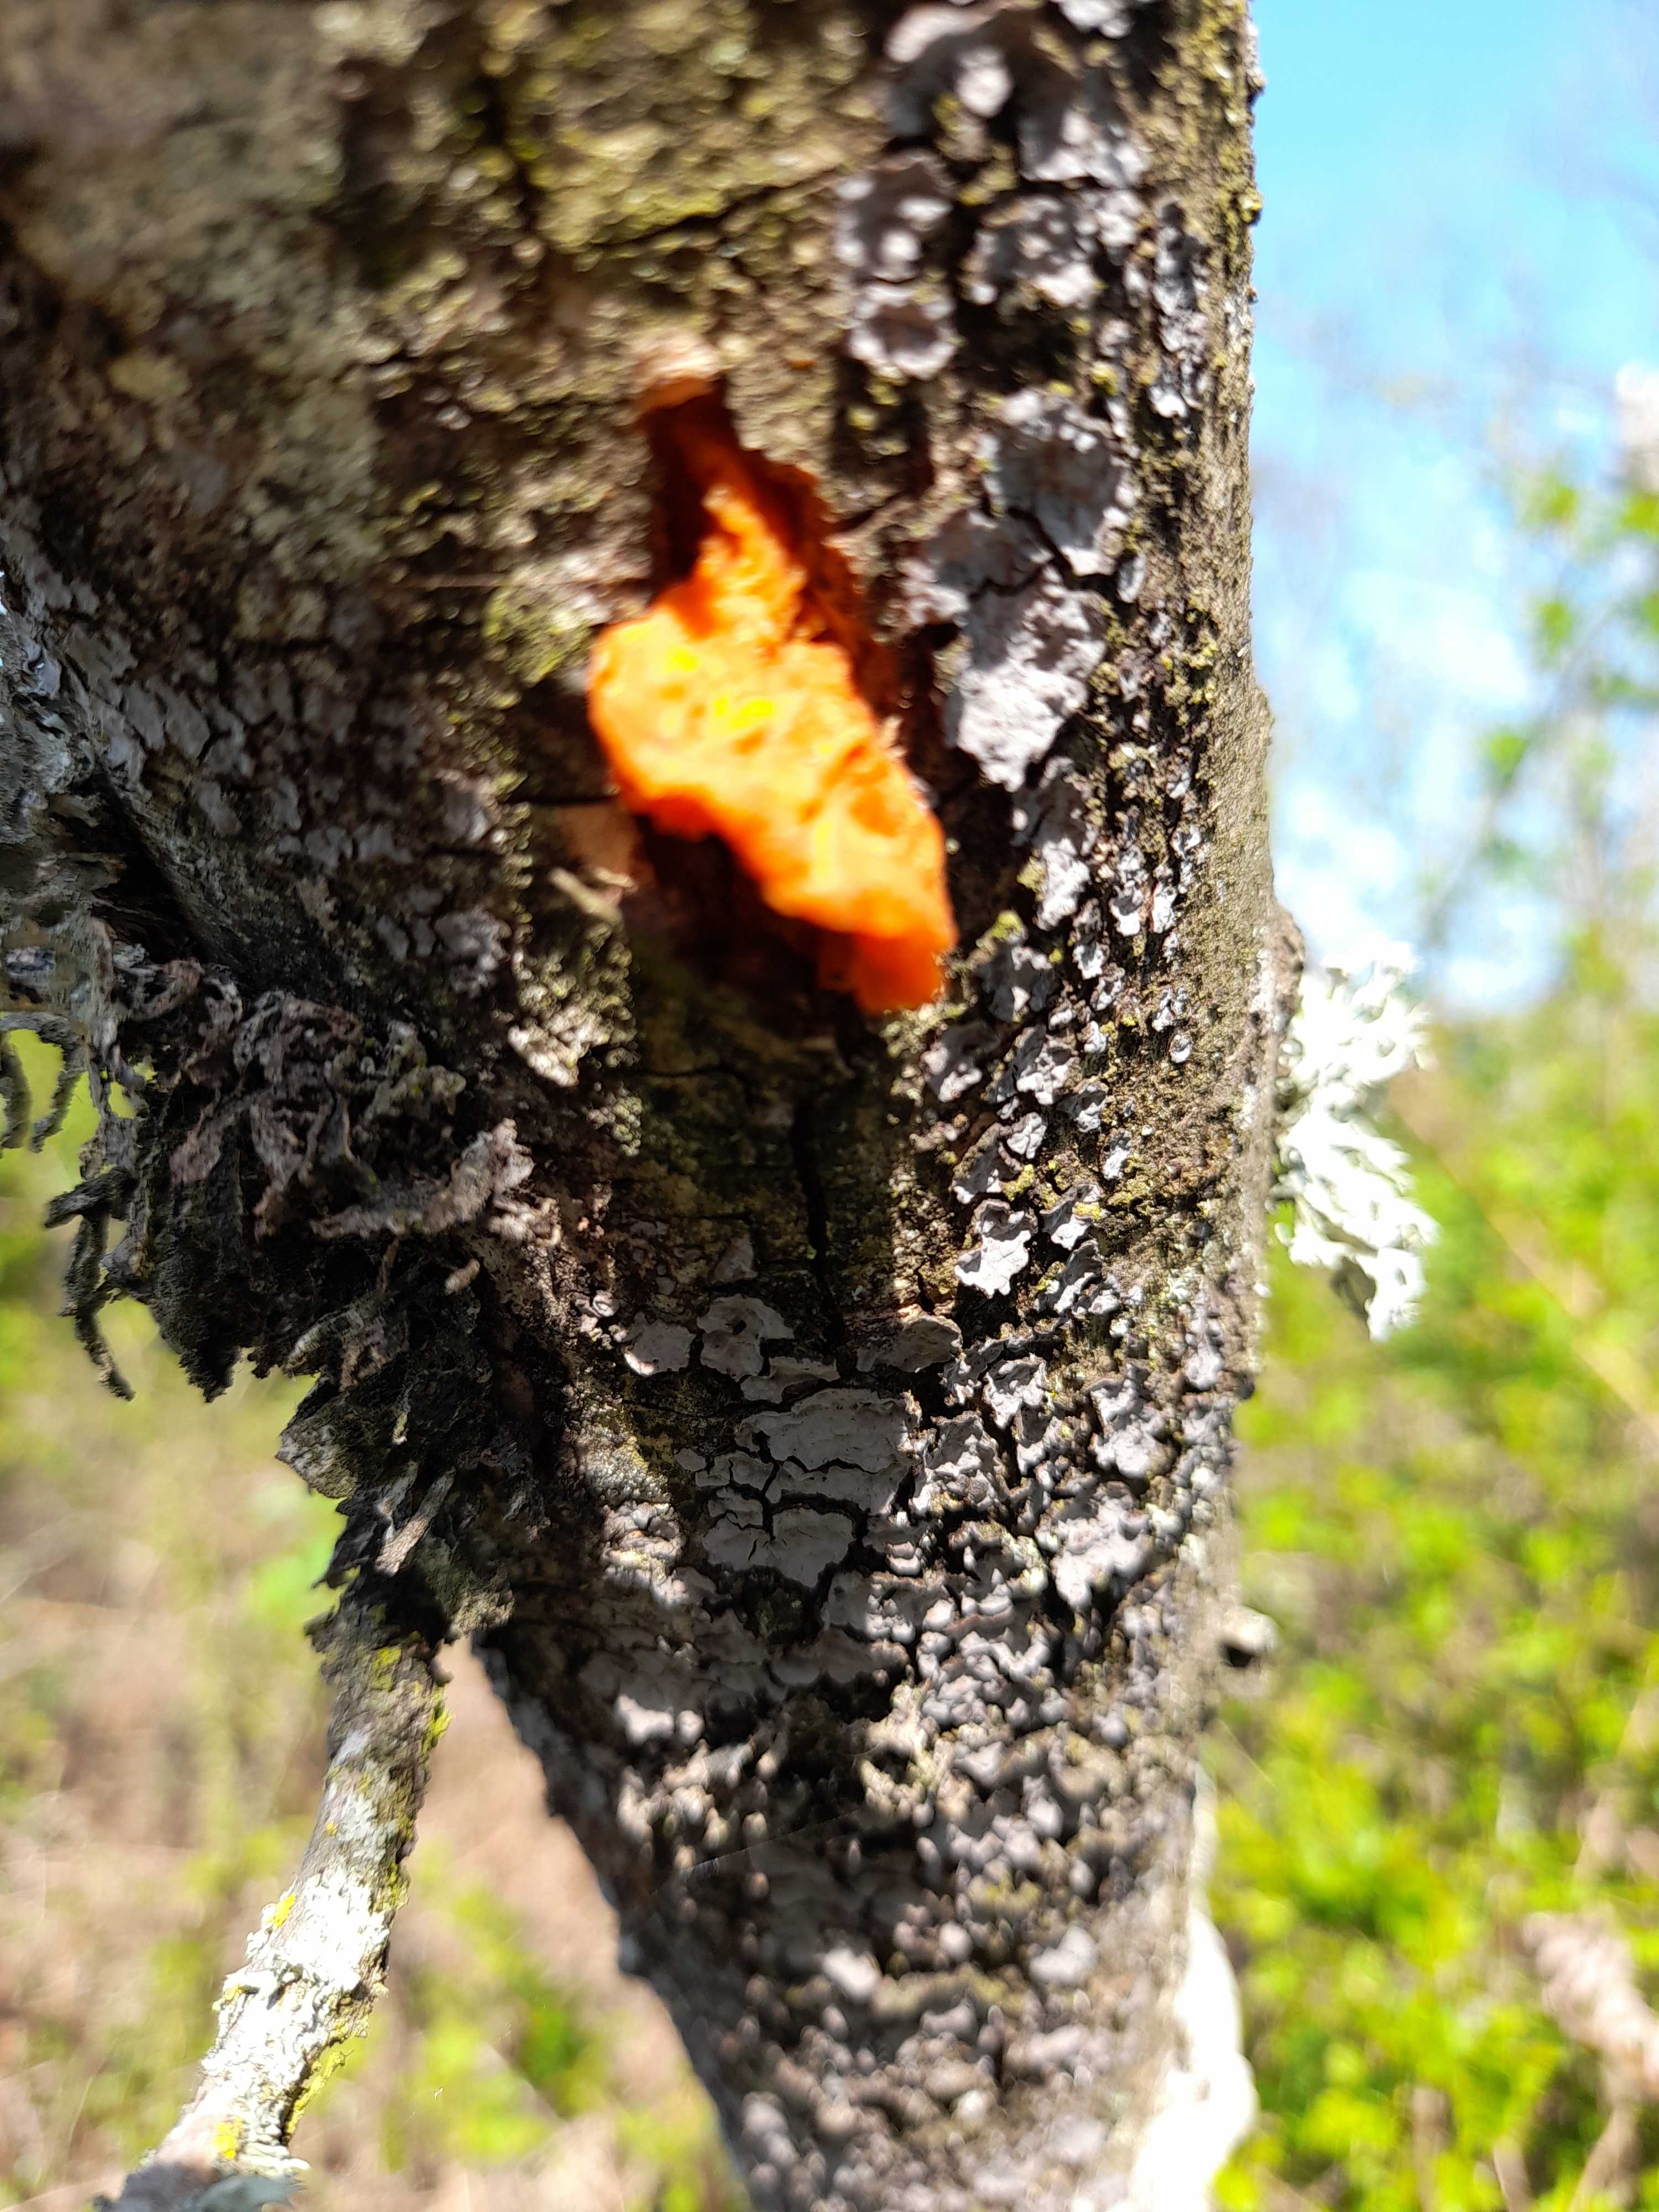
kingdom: Fungi
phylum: Basidiomycota
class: Tremellomycetes
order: Tremellales
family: Tremellaceae
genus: Tremella
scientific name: Tremella mesenterica
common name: gul bævresvamp
